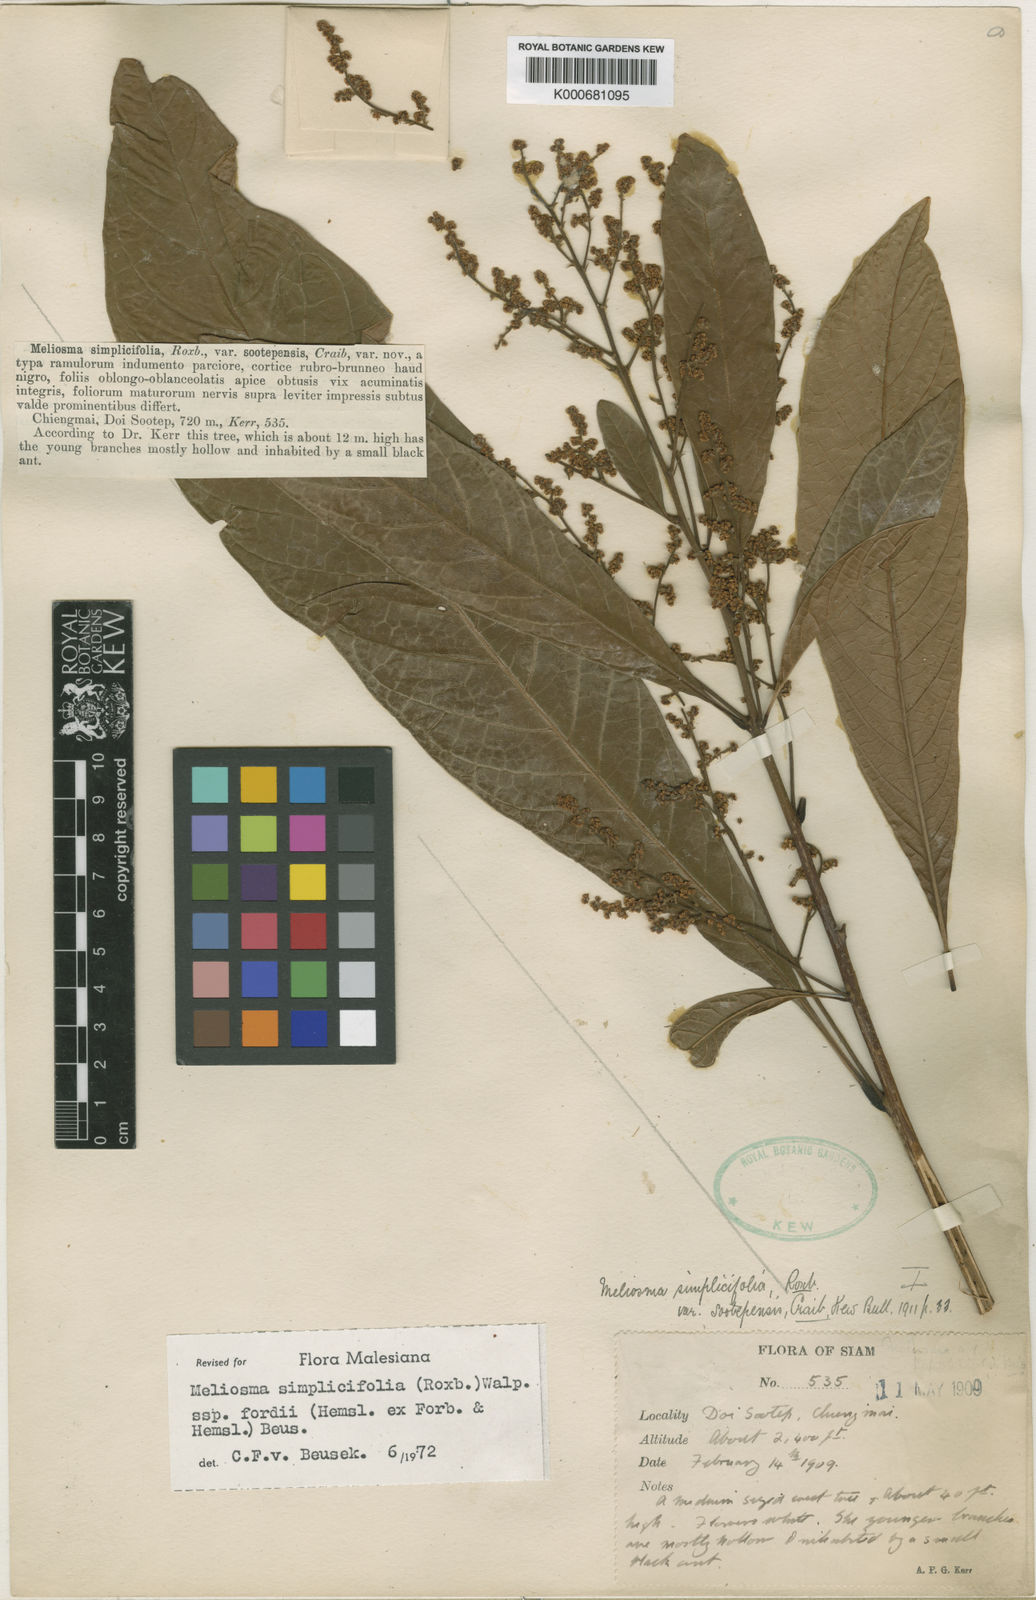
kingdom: Plantae
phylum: Tracheophyta
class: Magnoliopsida
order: Proteales
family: Sabiaceae
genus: Meliosma
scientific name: Meliosma fordii
